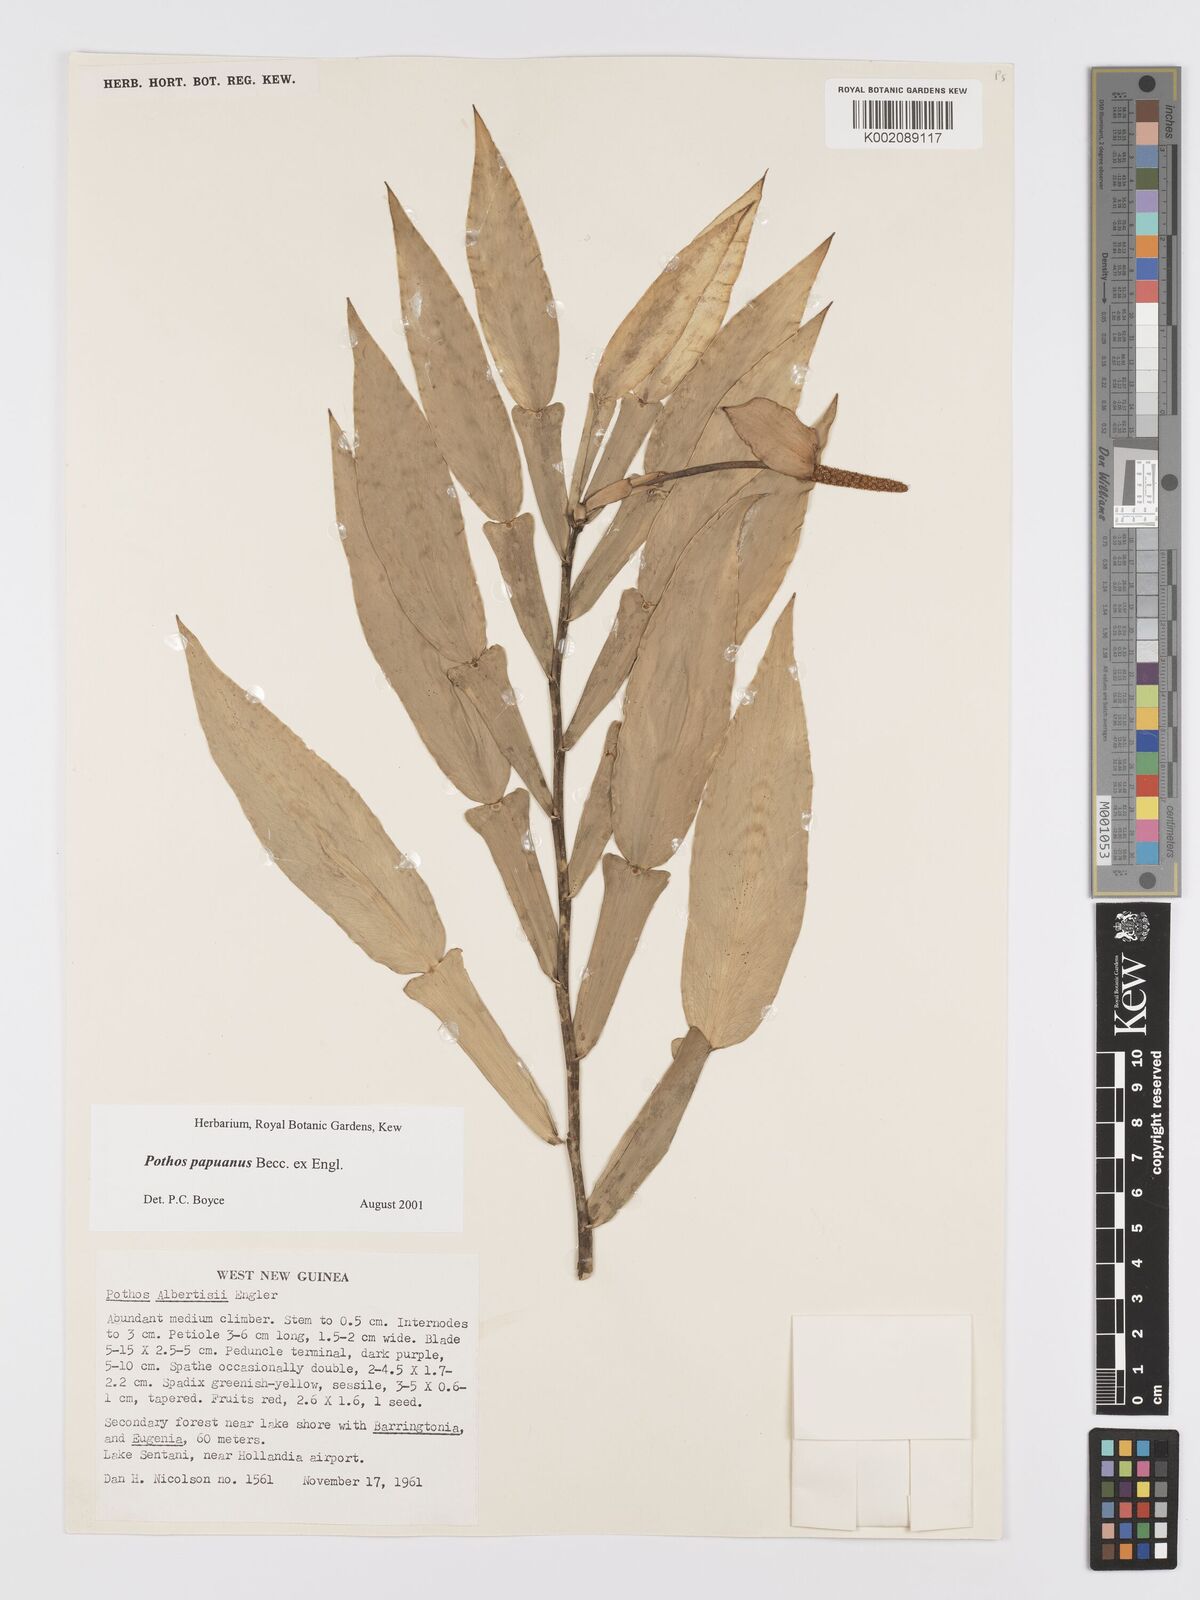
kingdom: Plantae
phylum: Tracheophyta
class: Liliopsida
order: Alismatales
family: Araceae
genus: Pothos
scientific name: Pothos papuanus
